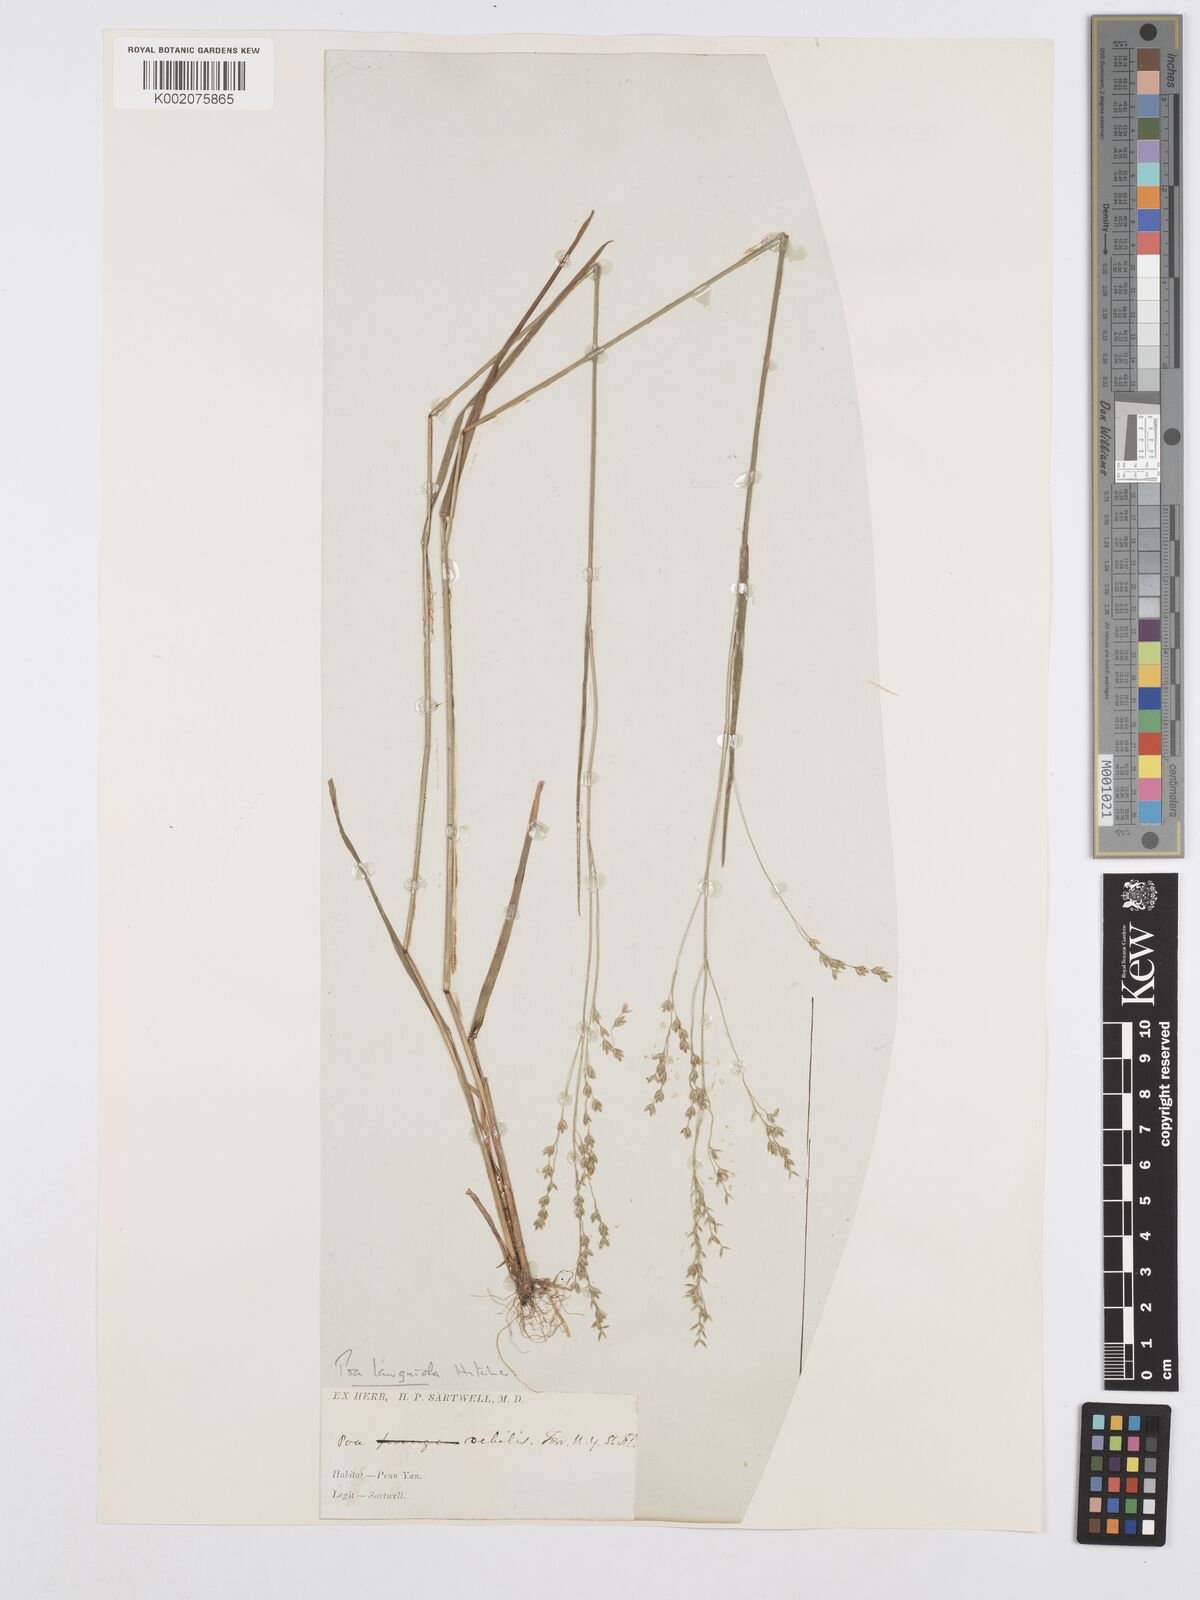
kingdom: Plantae
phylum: Tracheophyta
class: Liliopsida
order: Poales
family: Poaceae
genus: Poa
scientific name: Poa saltuensis
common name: Bushy pasture speargrass
